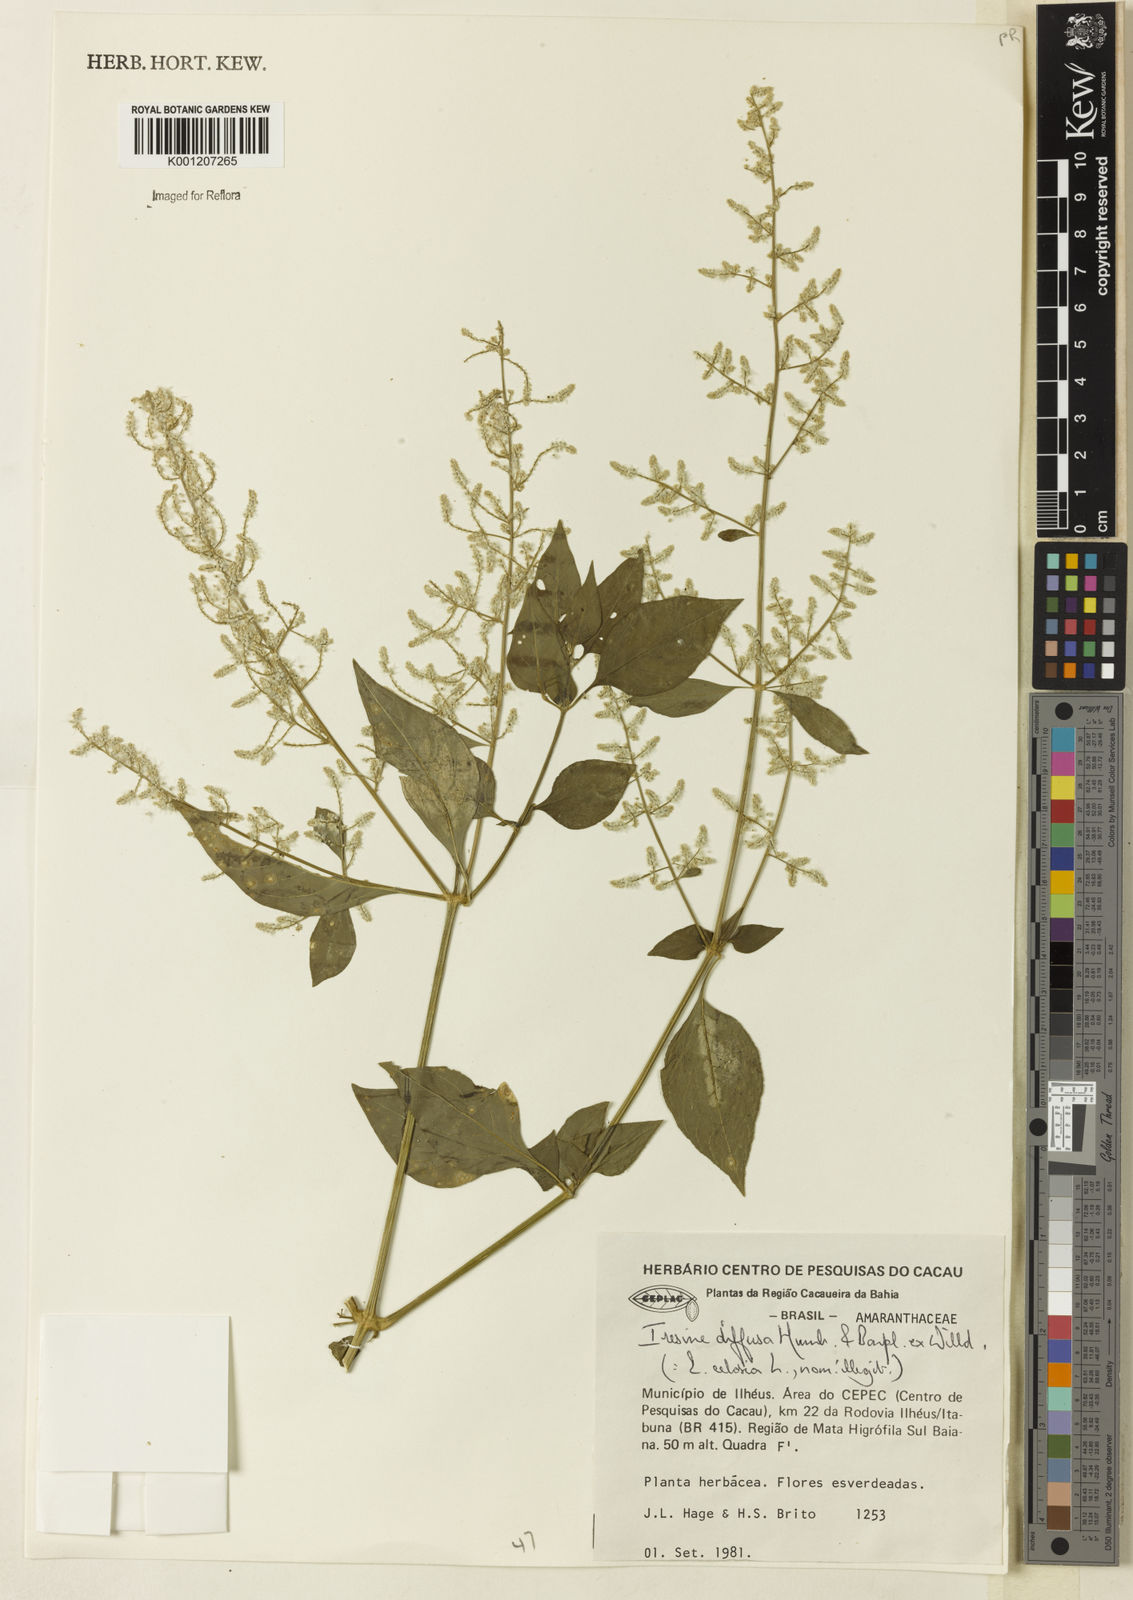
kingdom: Plantae
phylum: Tracheophyta
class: Magnoliopsida
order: Caryophyllales
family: Amaranthaceae
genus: Iresine
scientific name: Iresine rhizomatosa
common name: Juda's-bush
